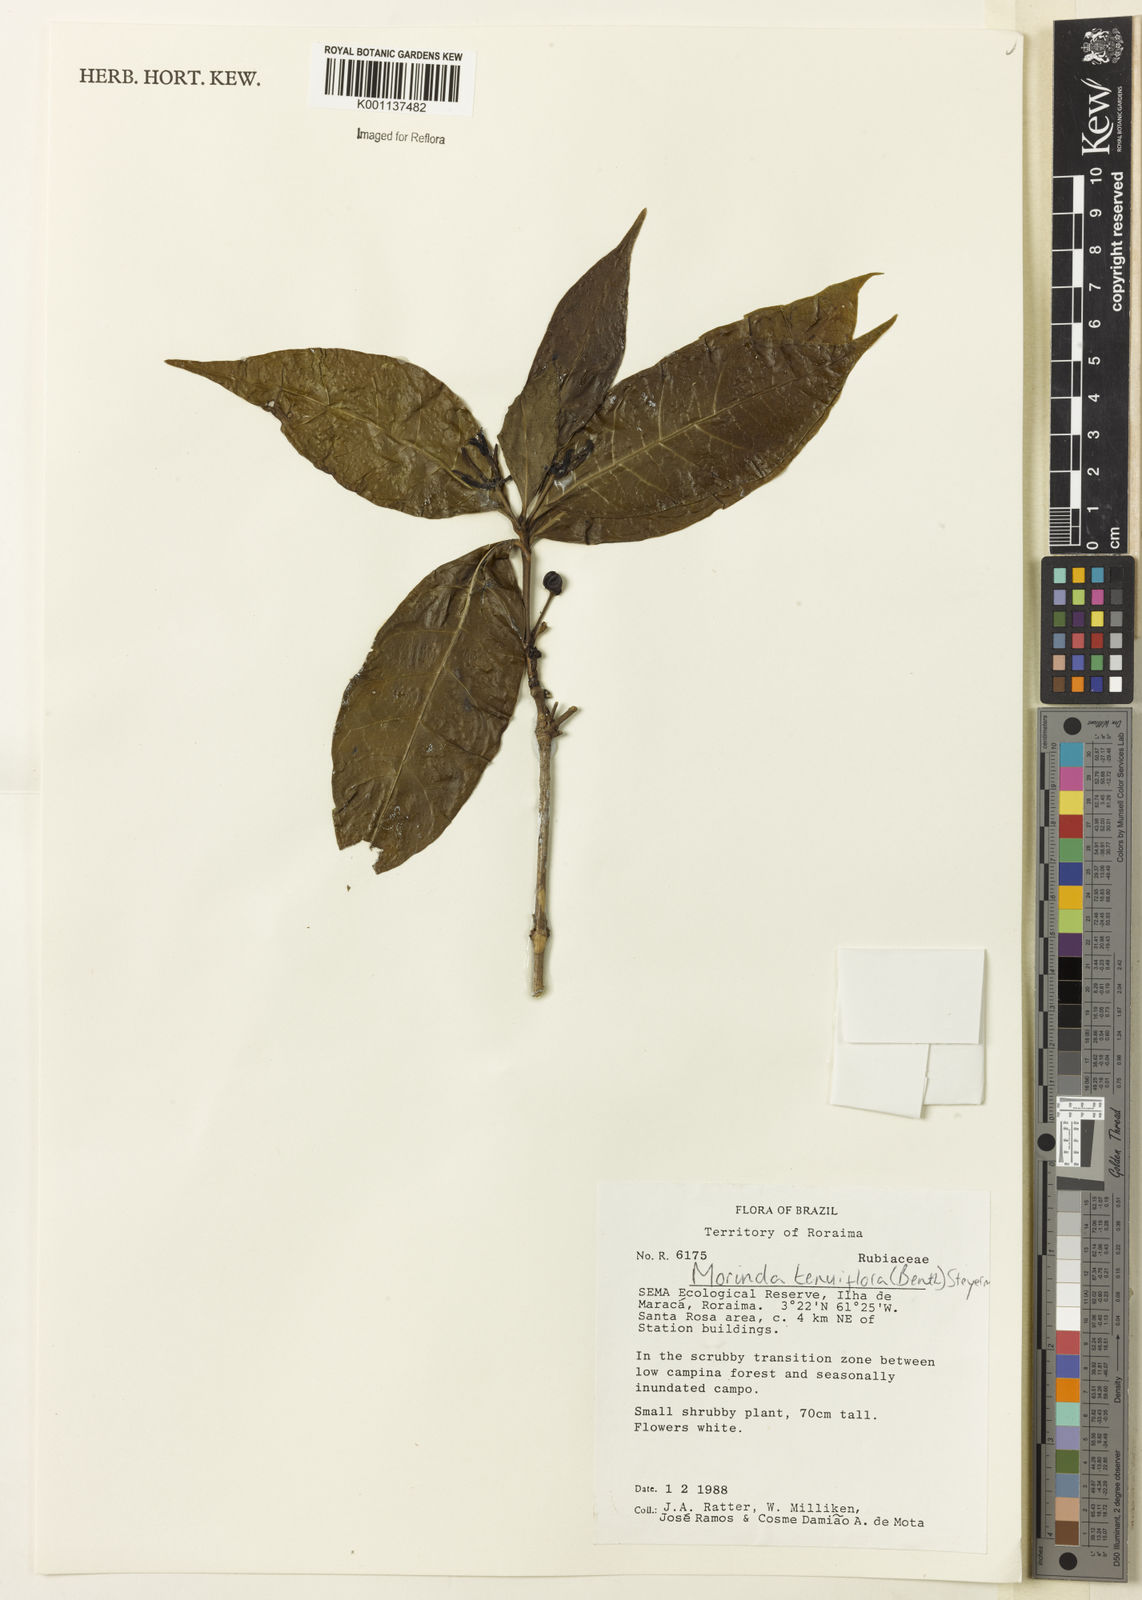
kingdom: Plantae
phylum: Tracheophyta
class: Magnoliopsida
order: Gentianales
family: Rubiaceae
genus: Appunia
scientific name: Appunia tenuiflora
